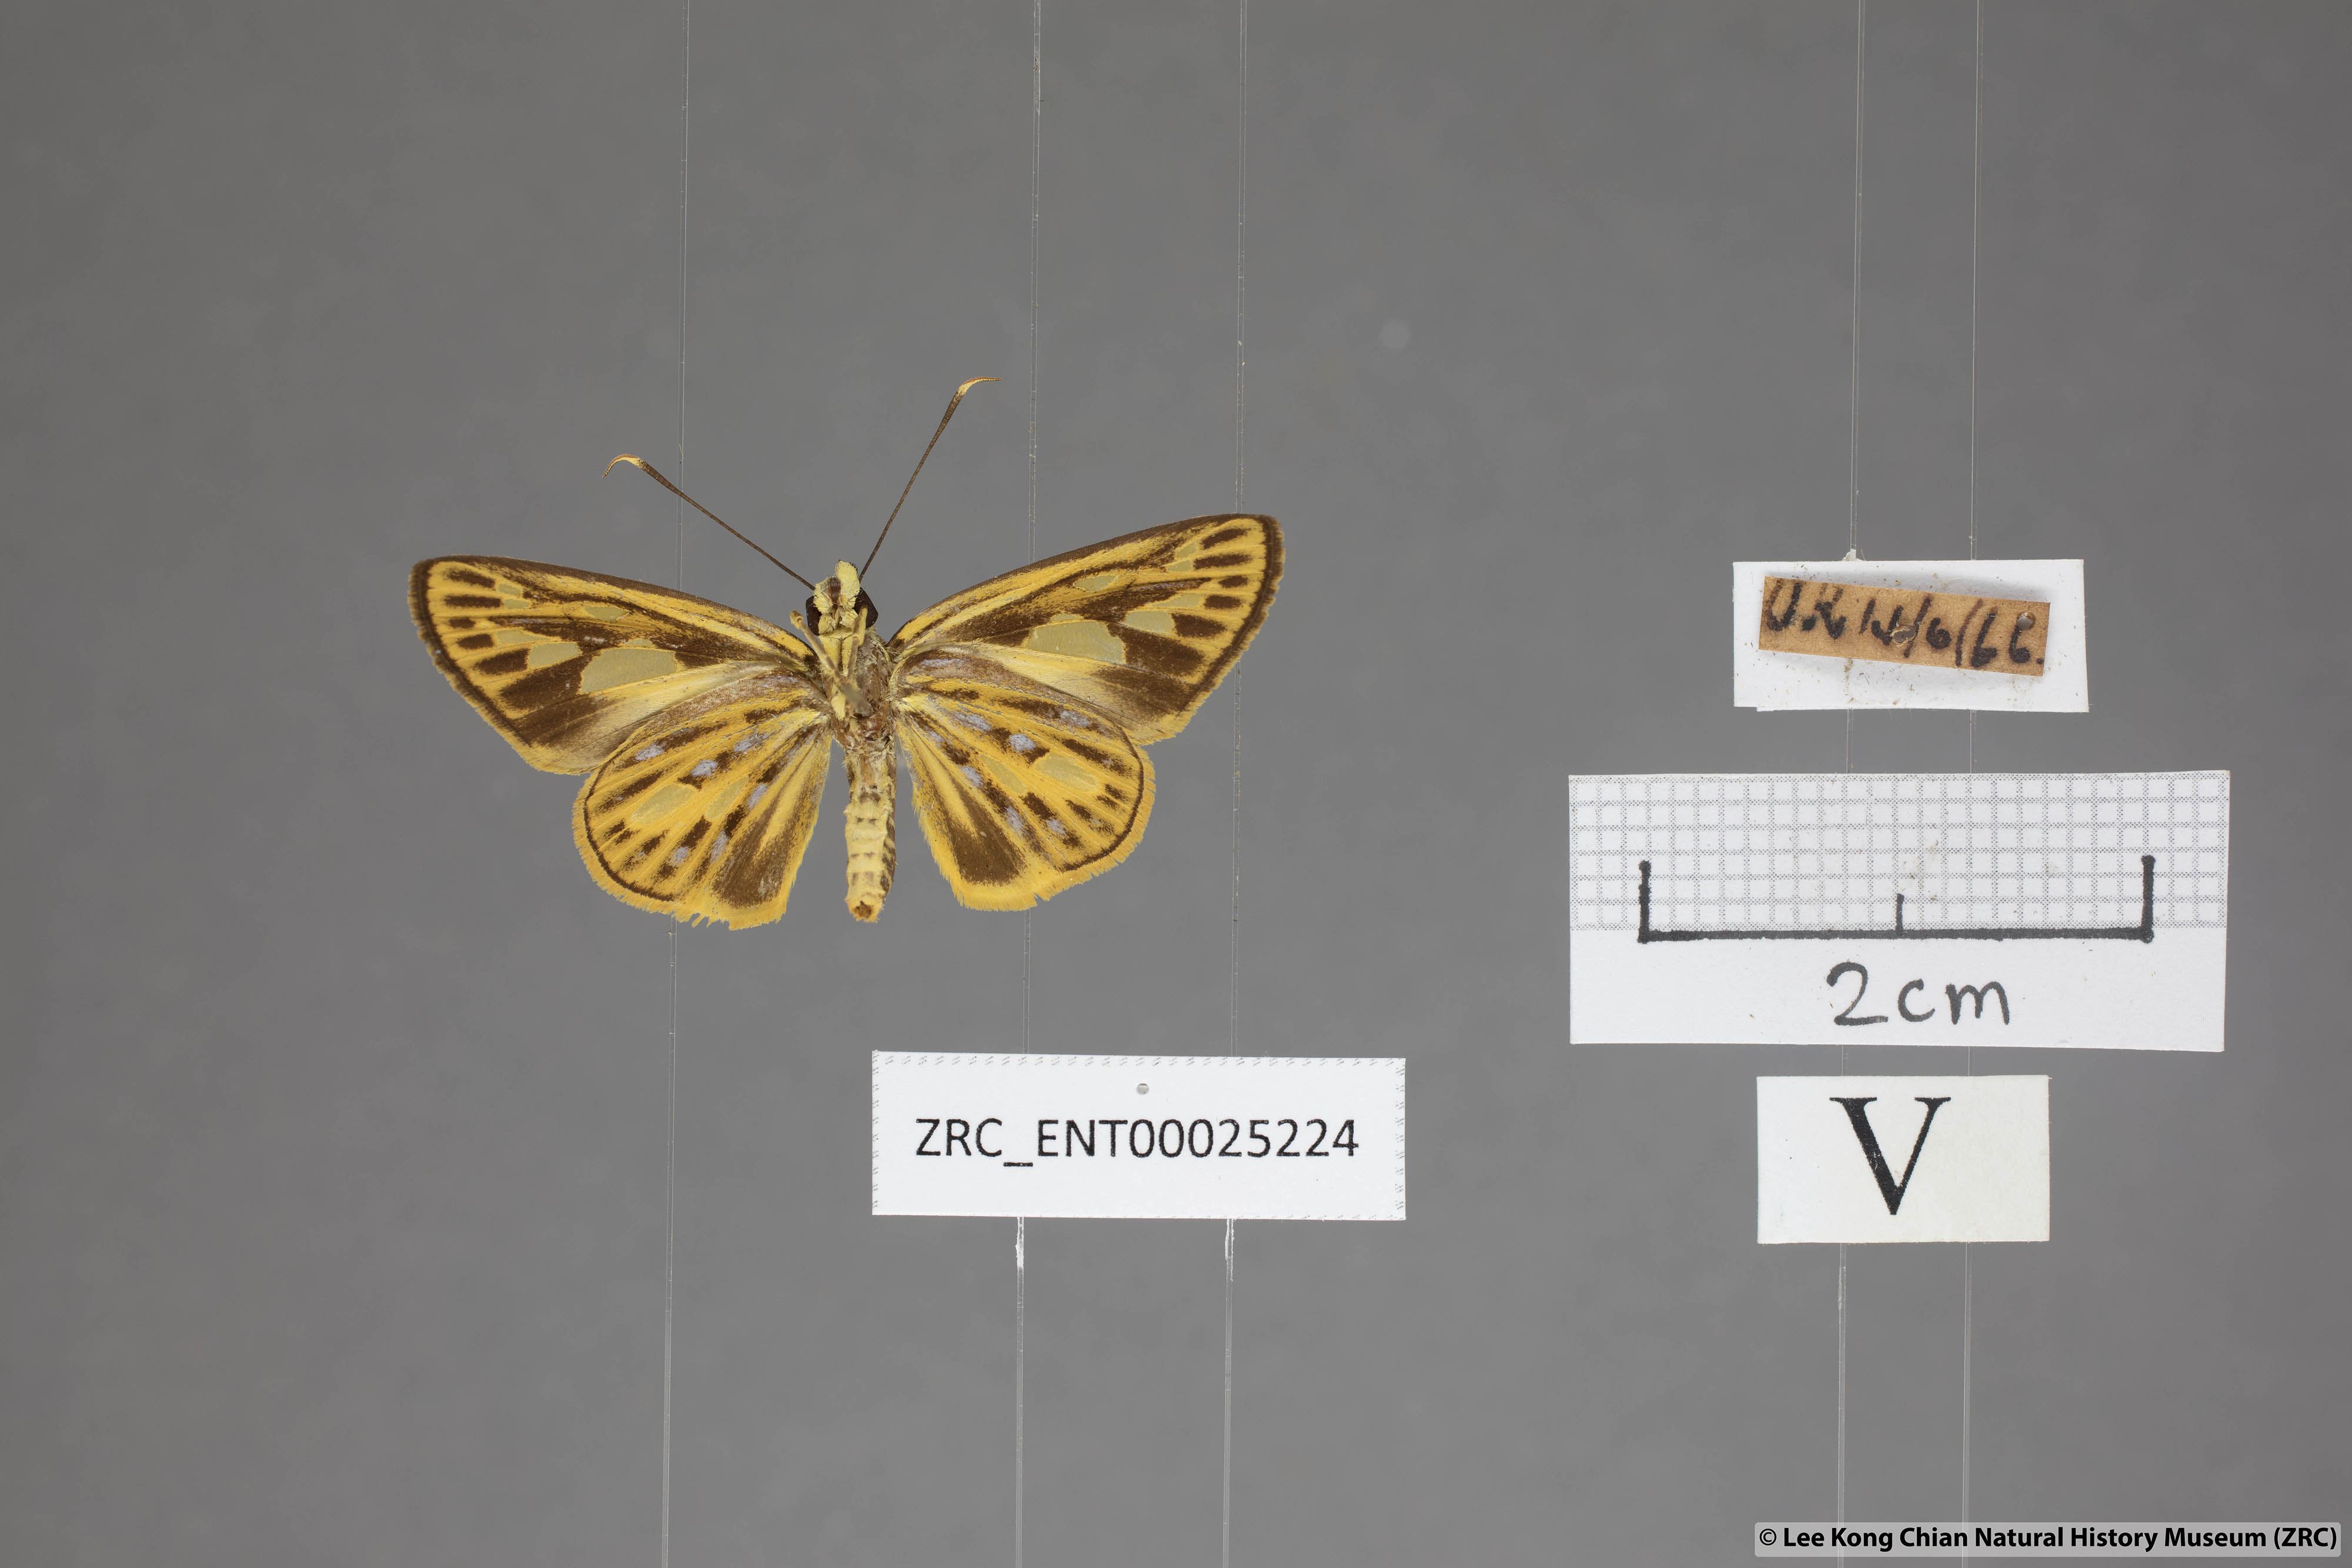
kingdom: Animalia
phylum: Arthropoda
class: Insecta
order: Lepidoptera
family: Hesperiidae
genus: Pyroneura
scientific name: Pyroneura flavia
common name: Lesser lancer
